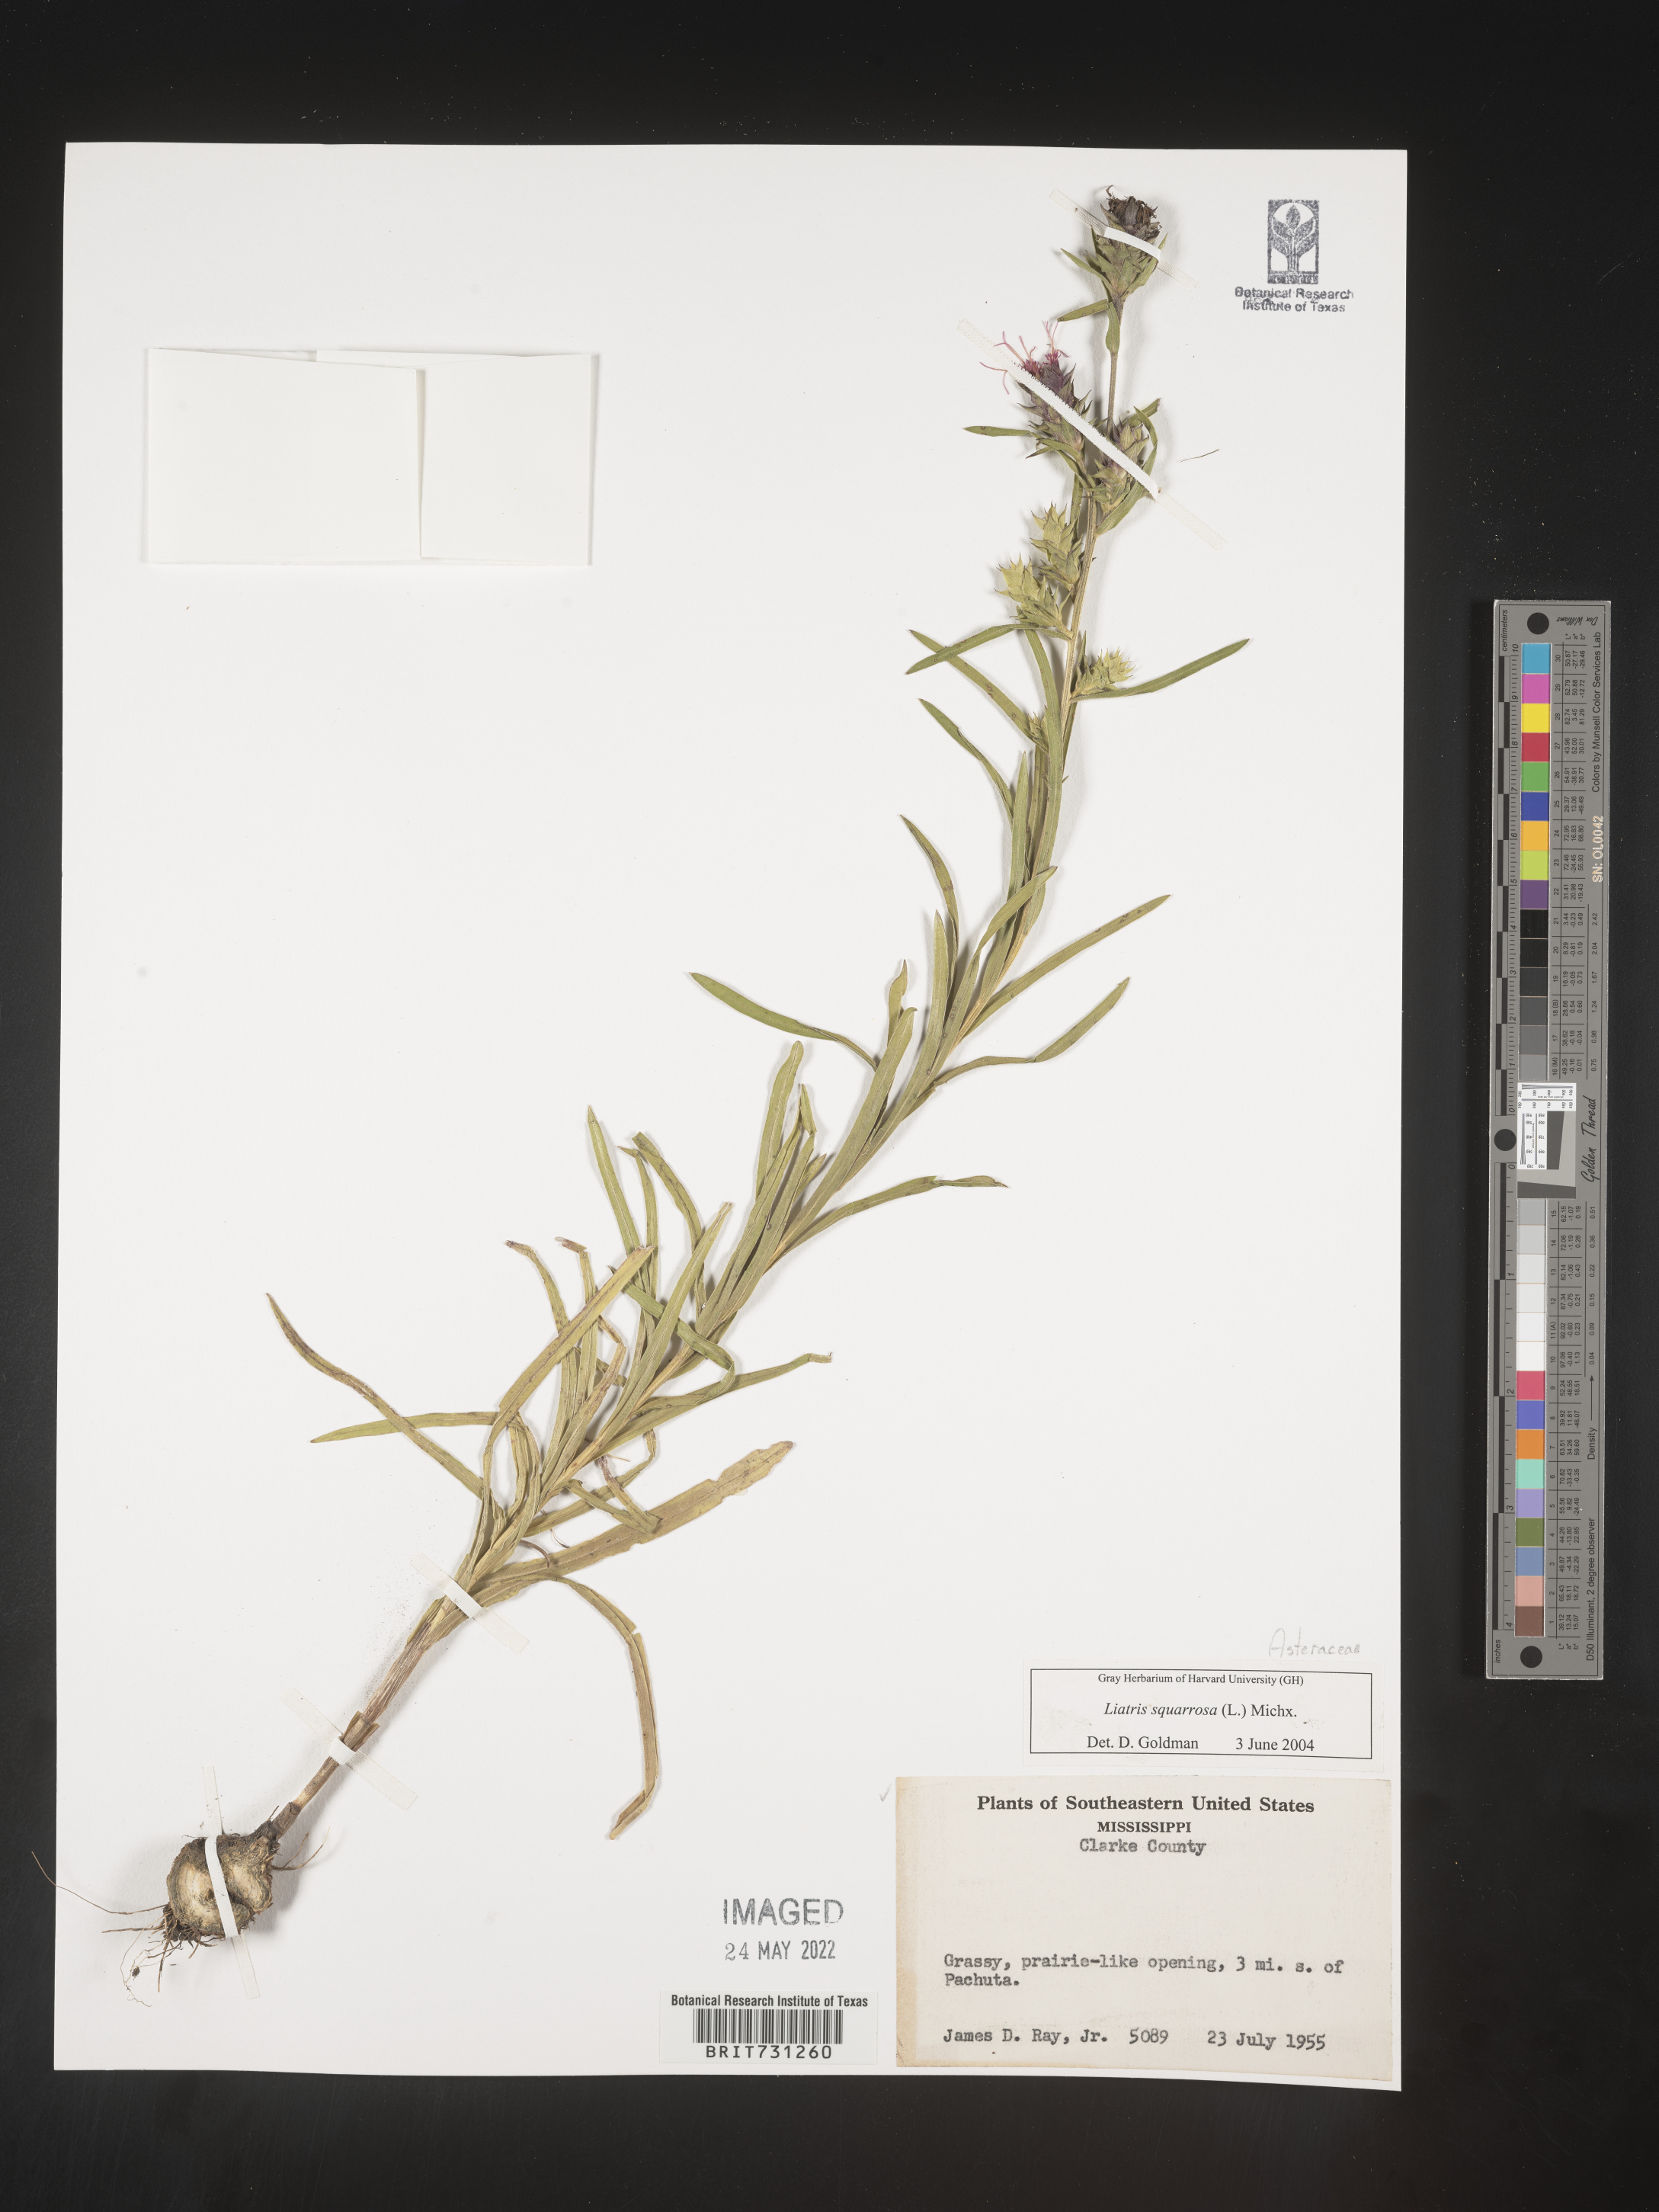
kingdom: Plantae
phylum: Tracheophyta
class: Magnoliopsida
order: Asterales
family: Asteraceae
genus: Liatris
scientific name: Liatris squarrosa
